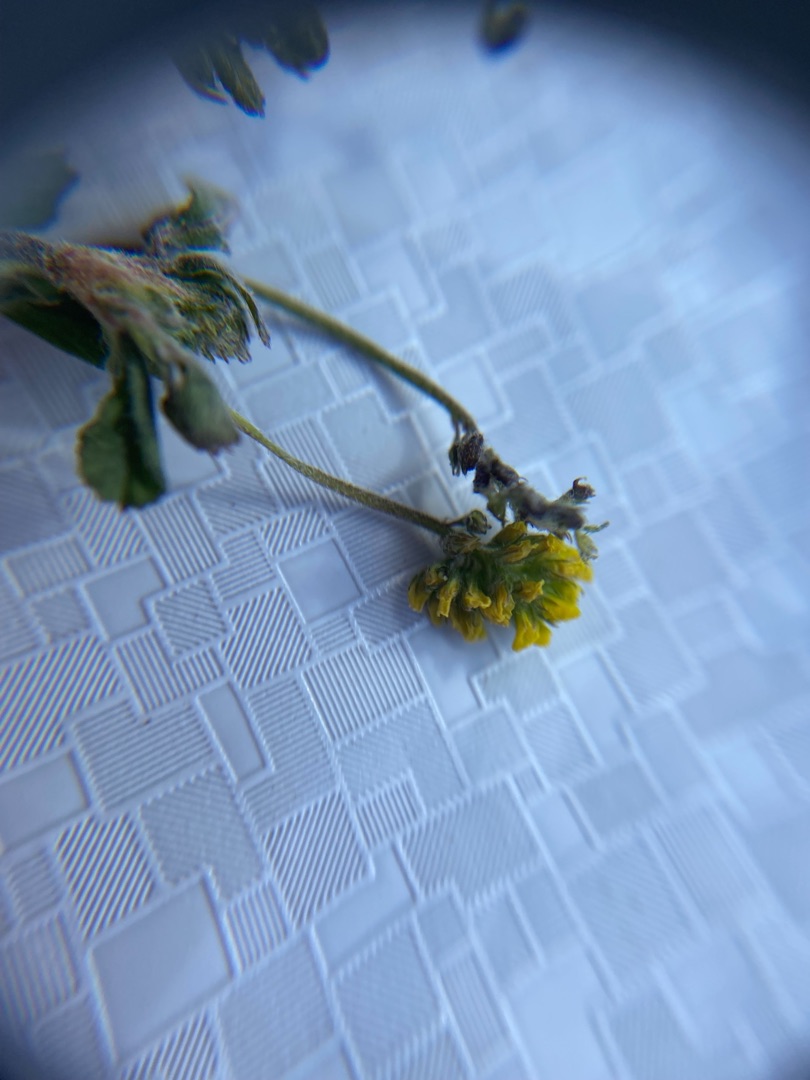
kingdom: Plantae
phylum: Tracheophyta
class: Magnoliopsida
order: Fabales
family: Fabaceae
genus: Medicago
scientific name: Medicago lupulina
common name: Humle-sneglebælg
